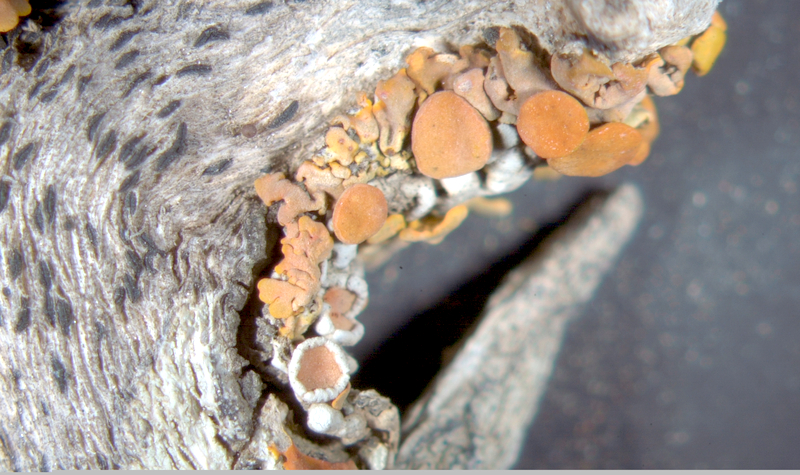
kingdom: Fungi
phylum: Ascomycota
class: Lecanoromycetes
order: Teloschistales
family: Teloschistaceae
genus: Dufourea
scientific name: Dufourea turbinata
